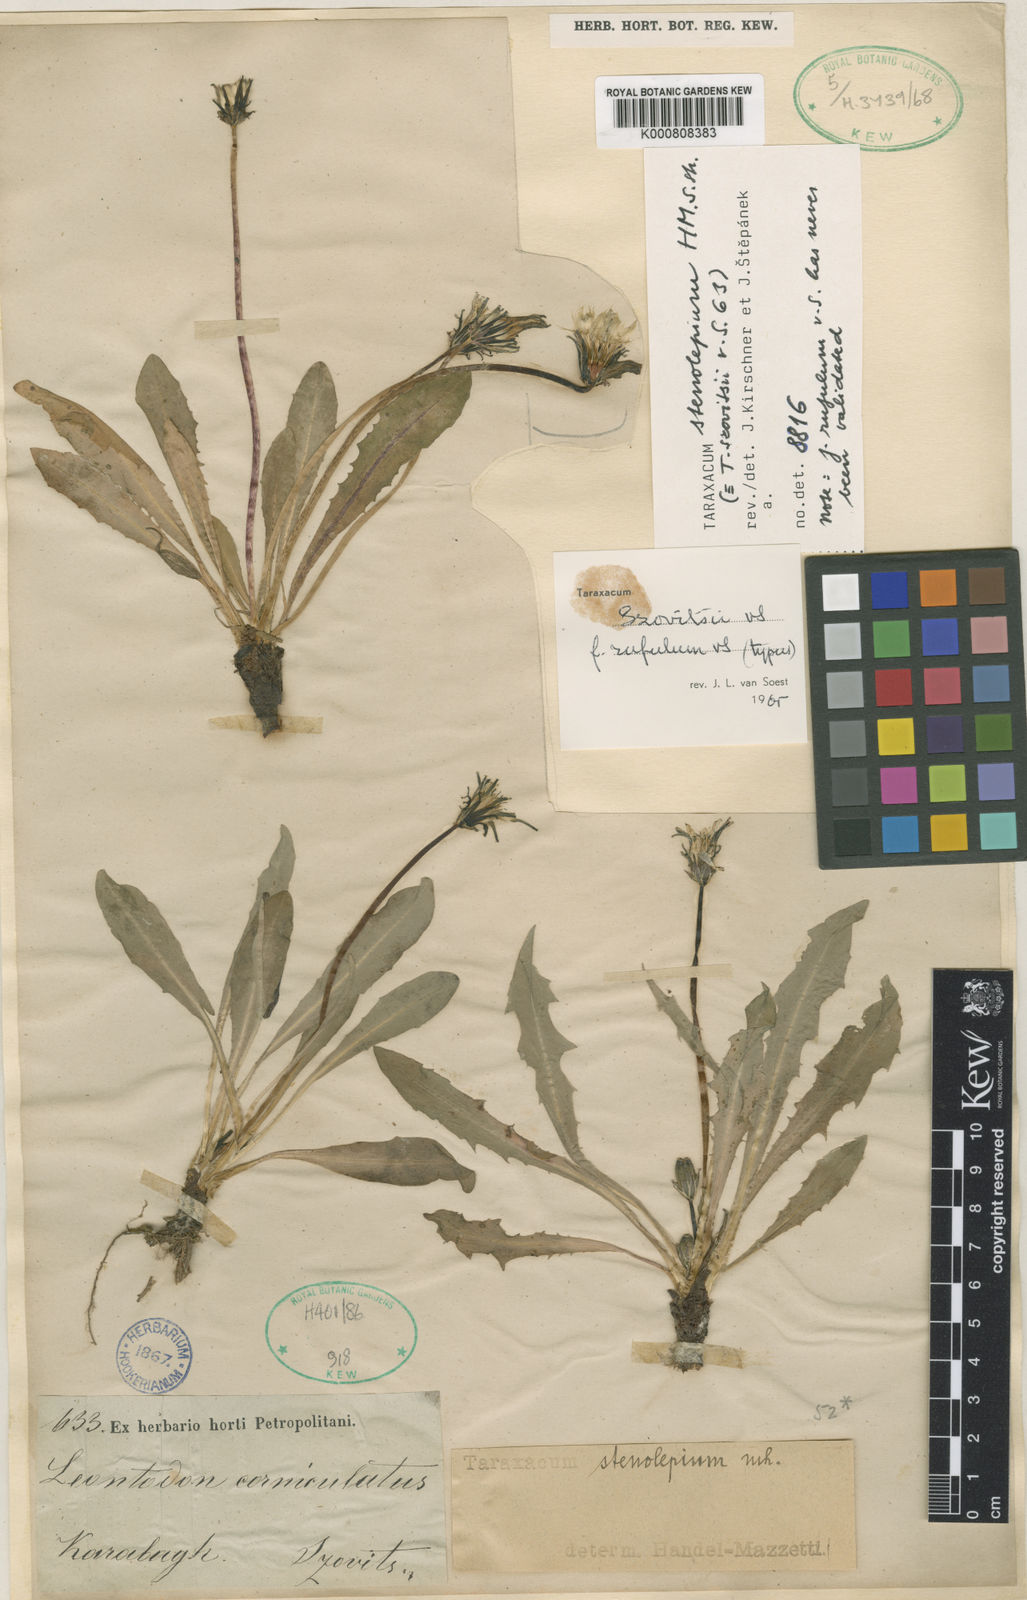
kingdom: Plantae
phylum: Tracheophyta
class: Magnoliopsida
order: Asterales
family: Asteraceae
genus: Taraxacum
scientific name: Taraxacum szovitsii
